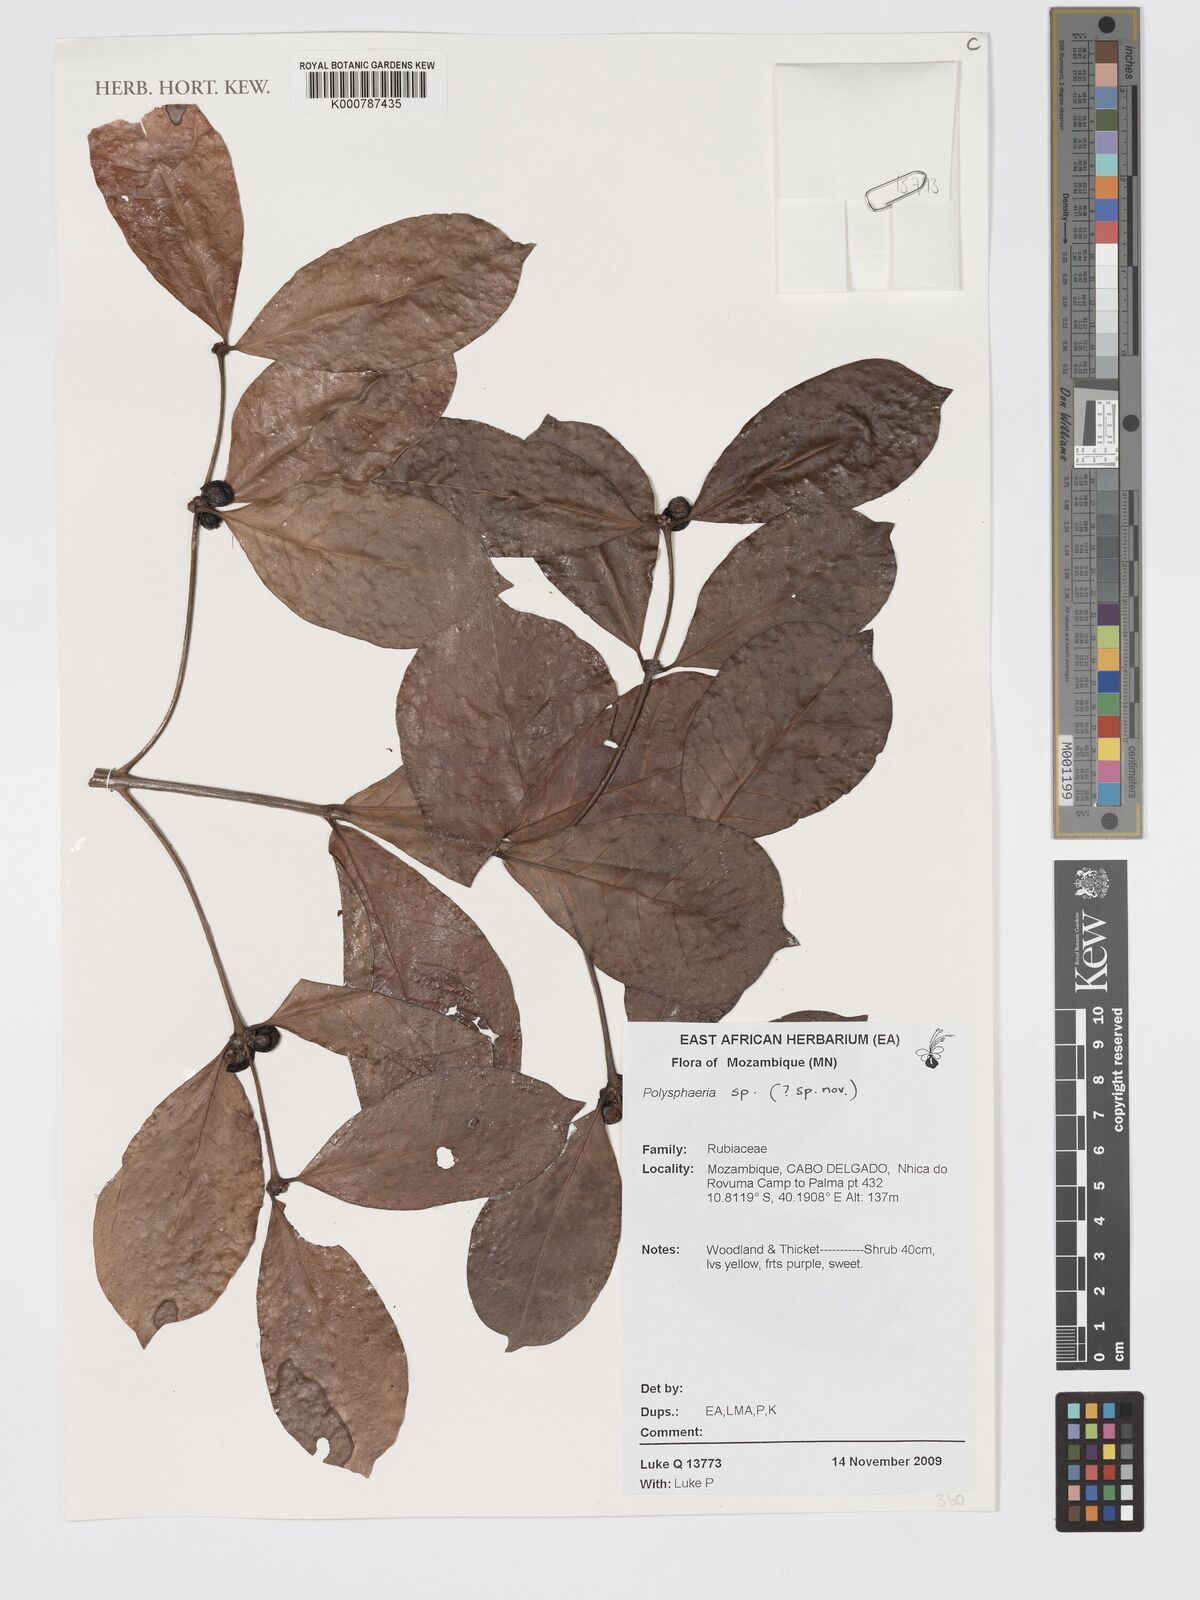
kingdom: Plantae
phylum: Tracheophyta
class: Magnoliopsida
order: Gentianales
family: Rubiaceae
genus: Polysphaeria
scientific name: Polysphaeria multiflora
